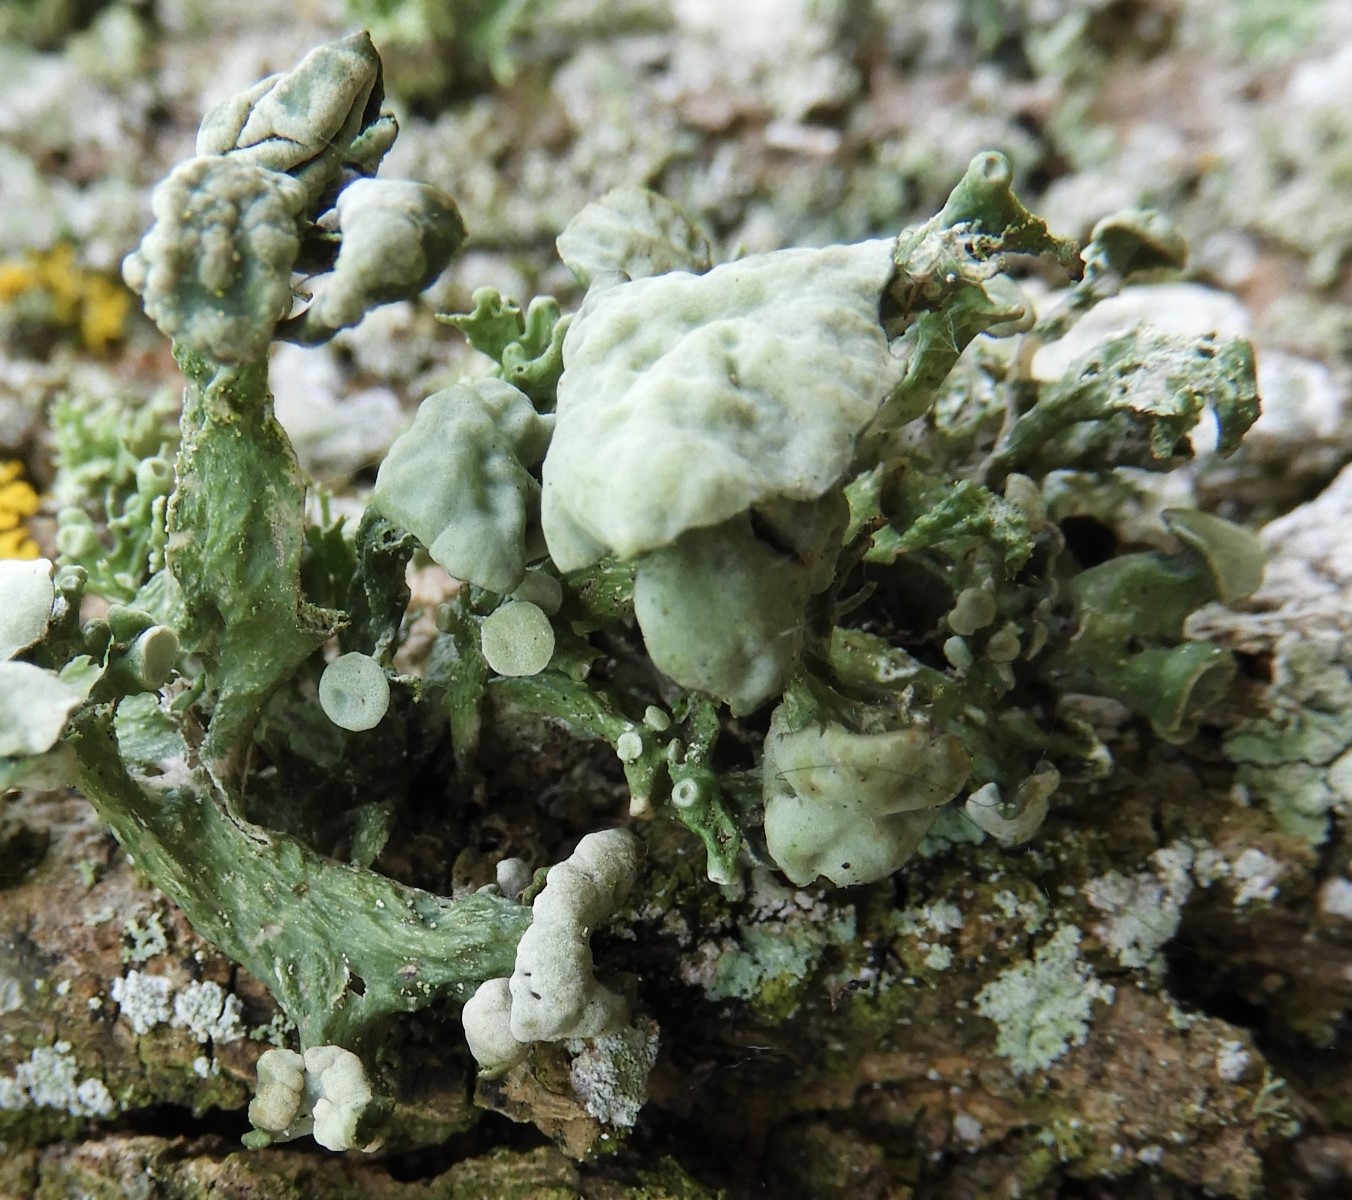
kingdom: Fungi
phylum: Ascomycota
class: Lecanoromycetes
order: Lecanorales
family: Ramalinaceae
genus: Ramalina
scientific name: Ramalina fastigiata
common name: tue-grenlav
